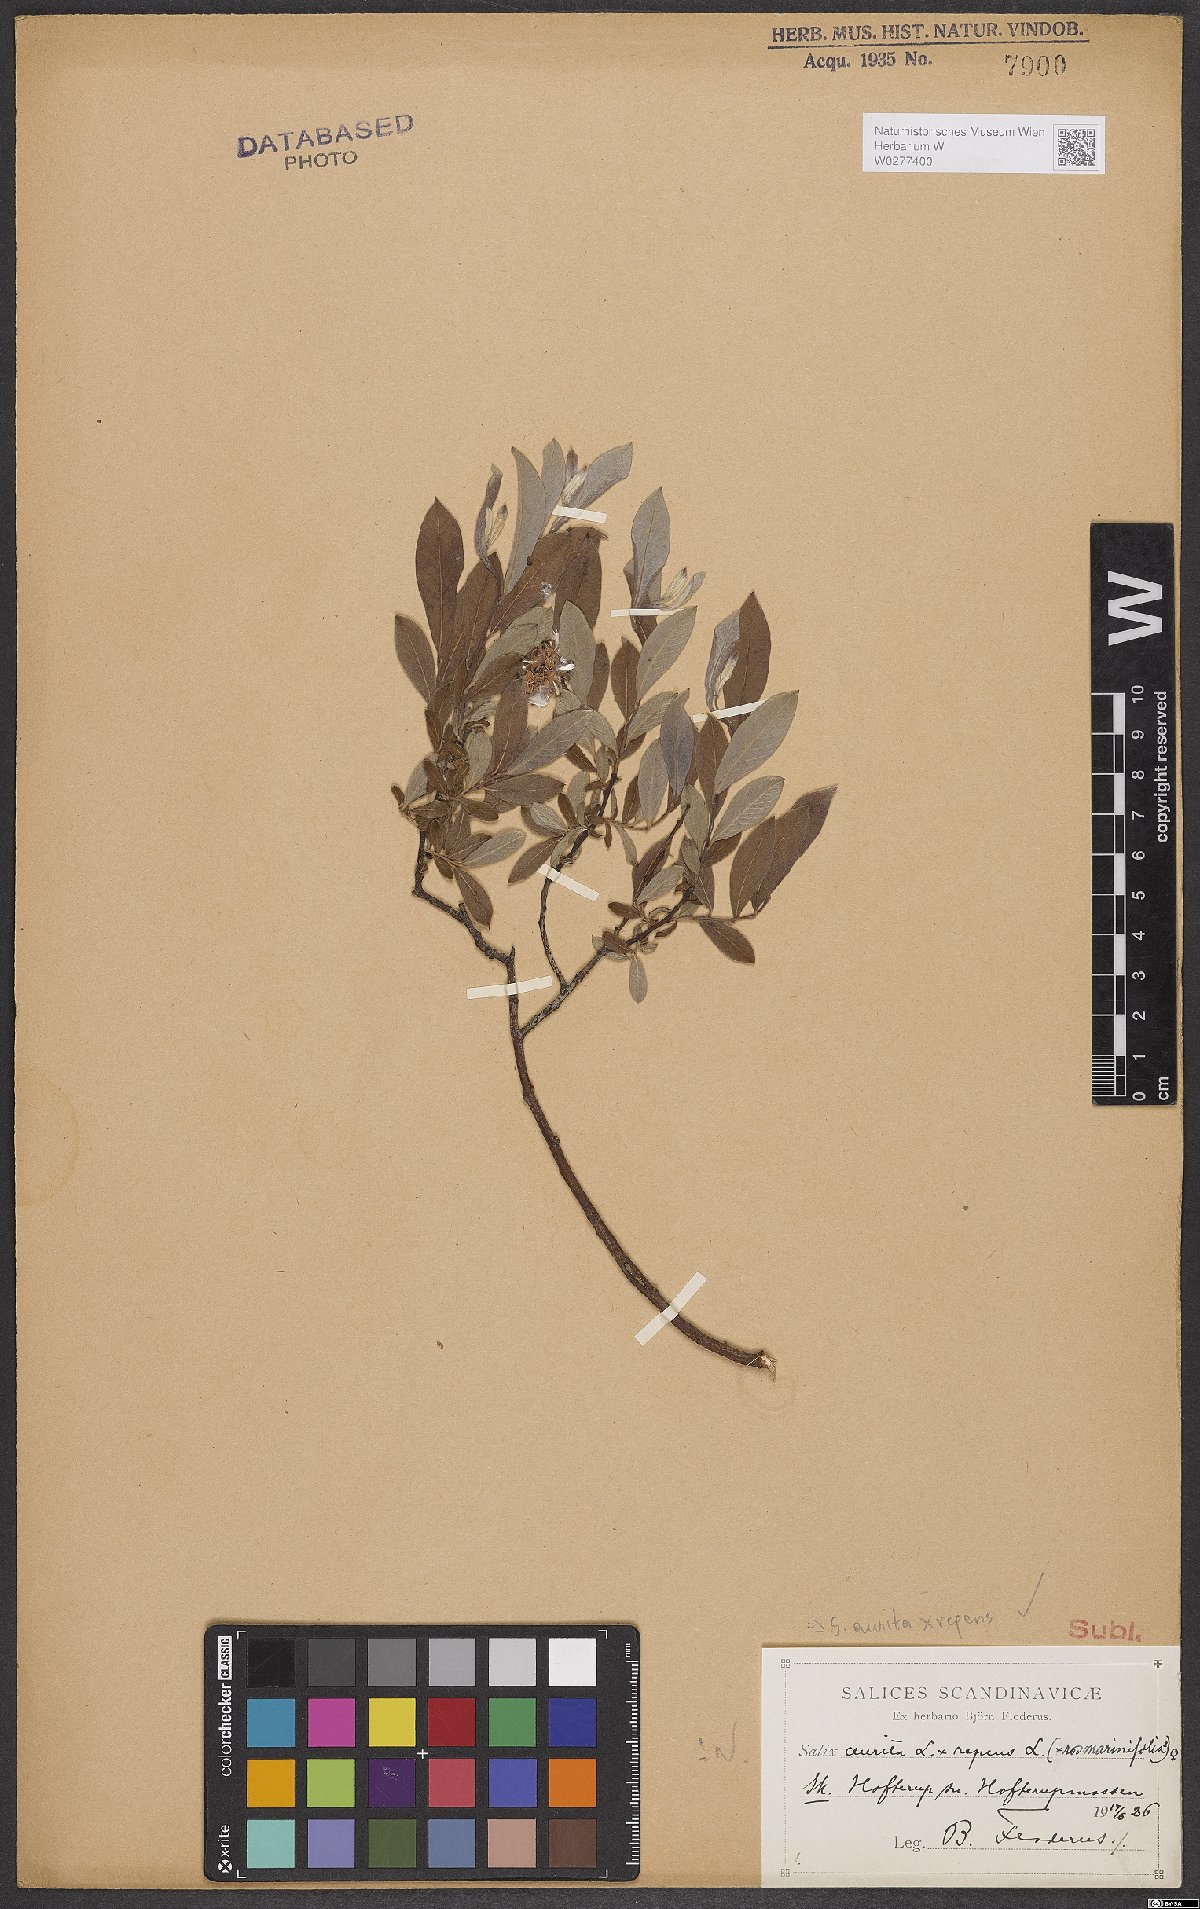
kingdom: Plantae
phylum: Tracheophyta
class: Magnoliopsida
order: Malpighiales
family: Salicaceae
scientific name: Salicaceae
